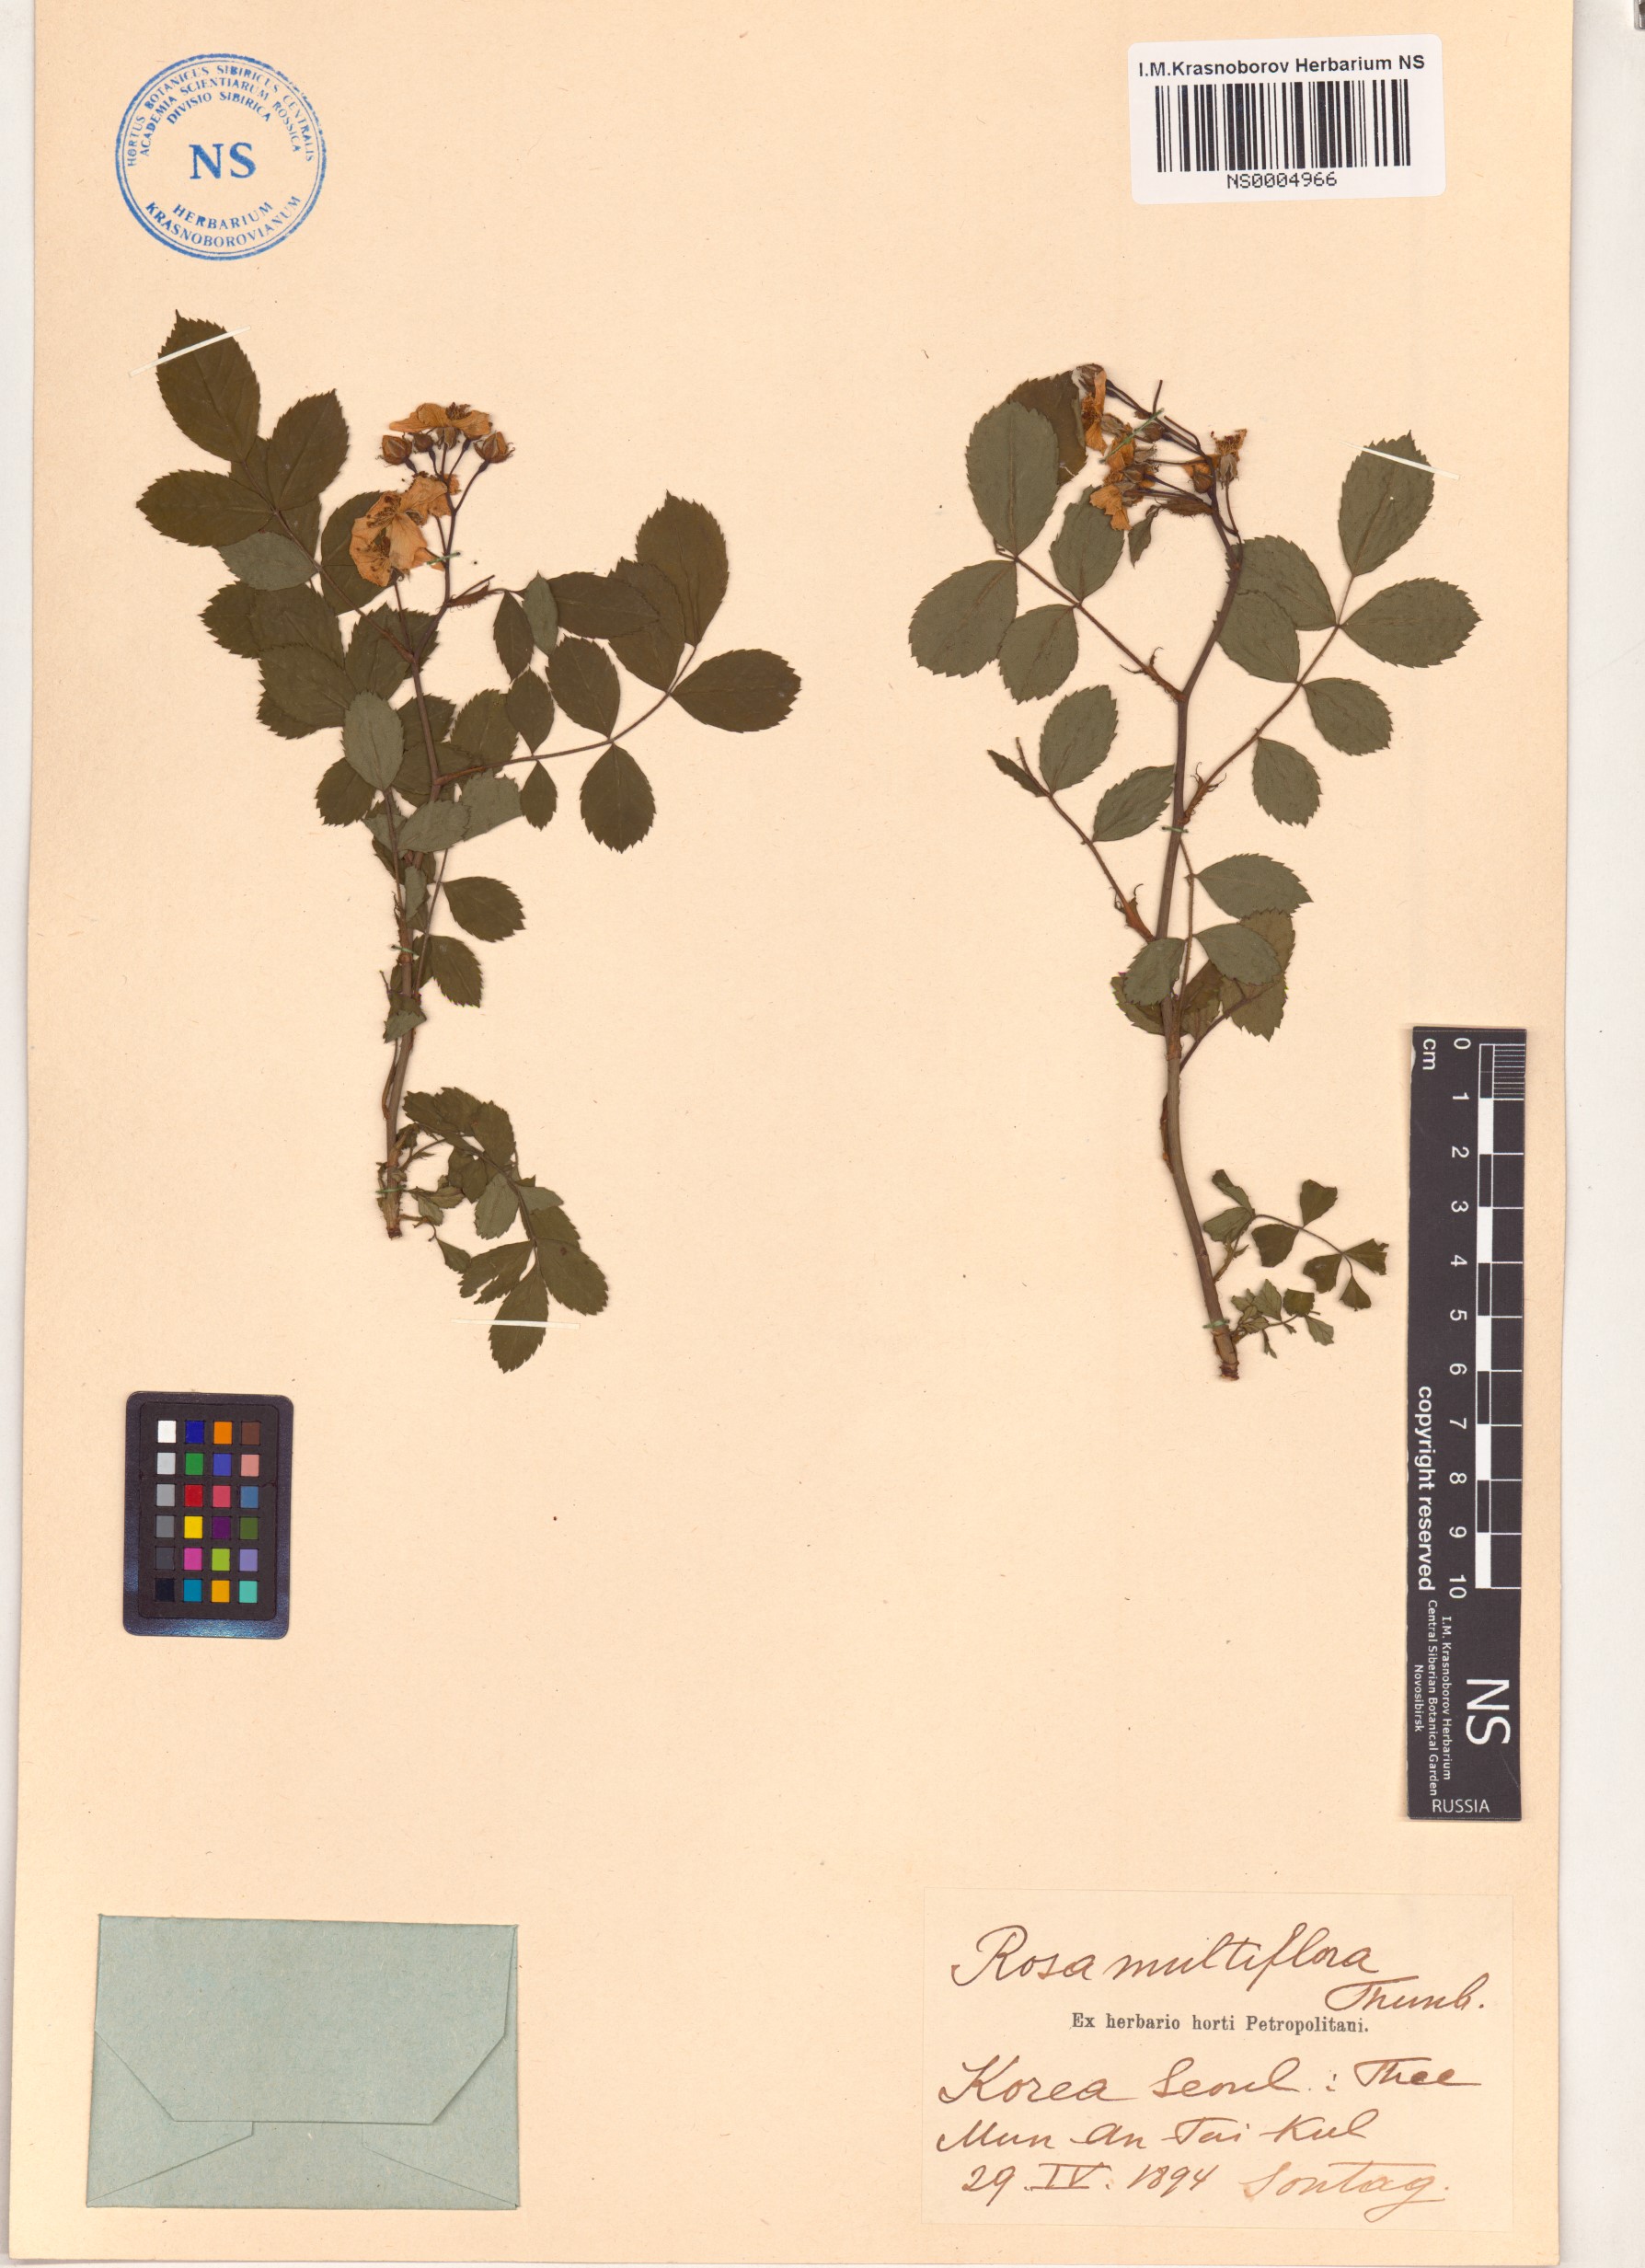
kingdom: Plantae
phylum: Tracheophyta
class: Magnoliopsida
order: Rosales
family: Rosaceae
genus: Rosa
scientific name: Rosa multiflora
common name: Multiflora rose
